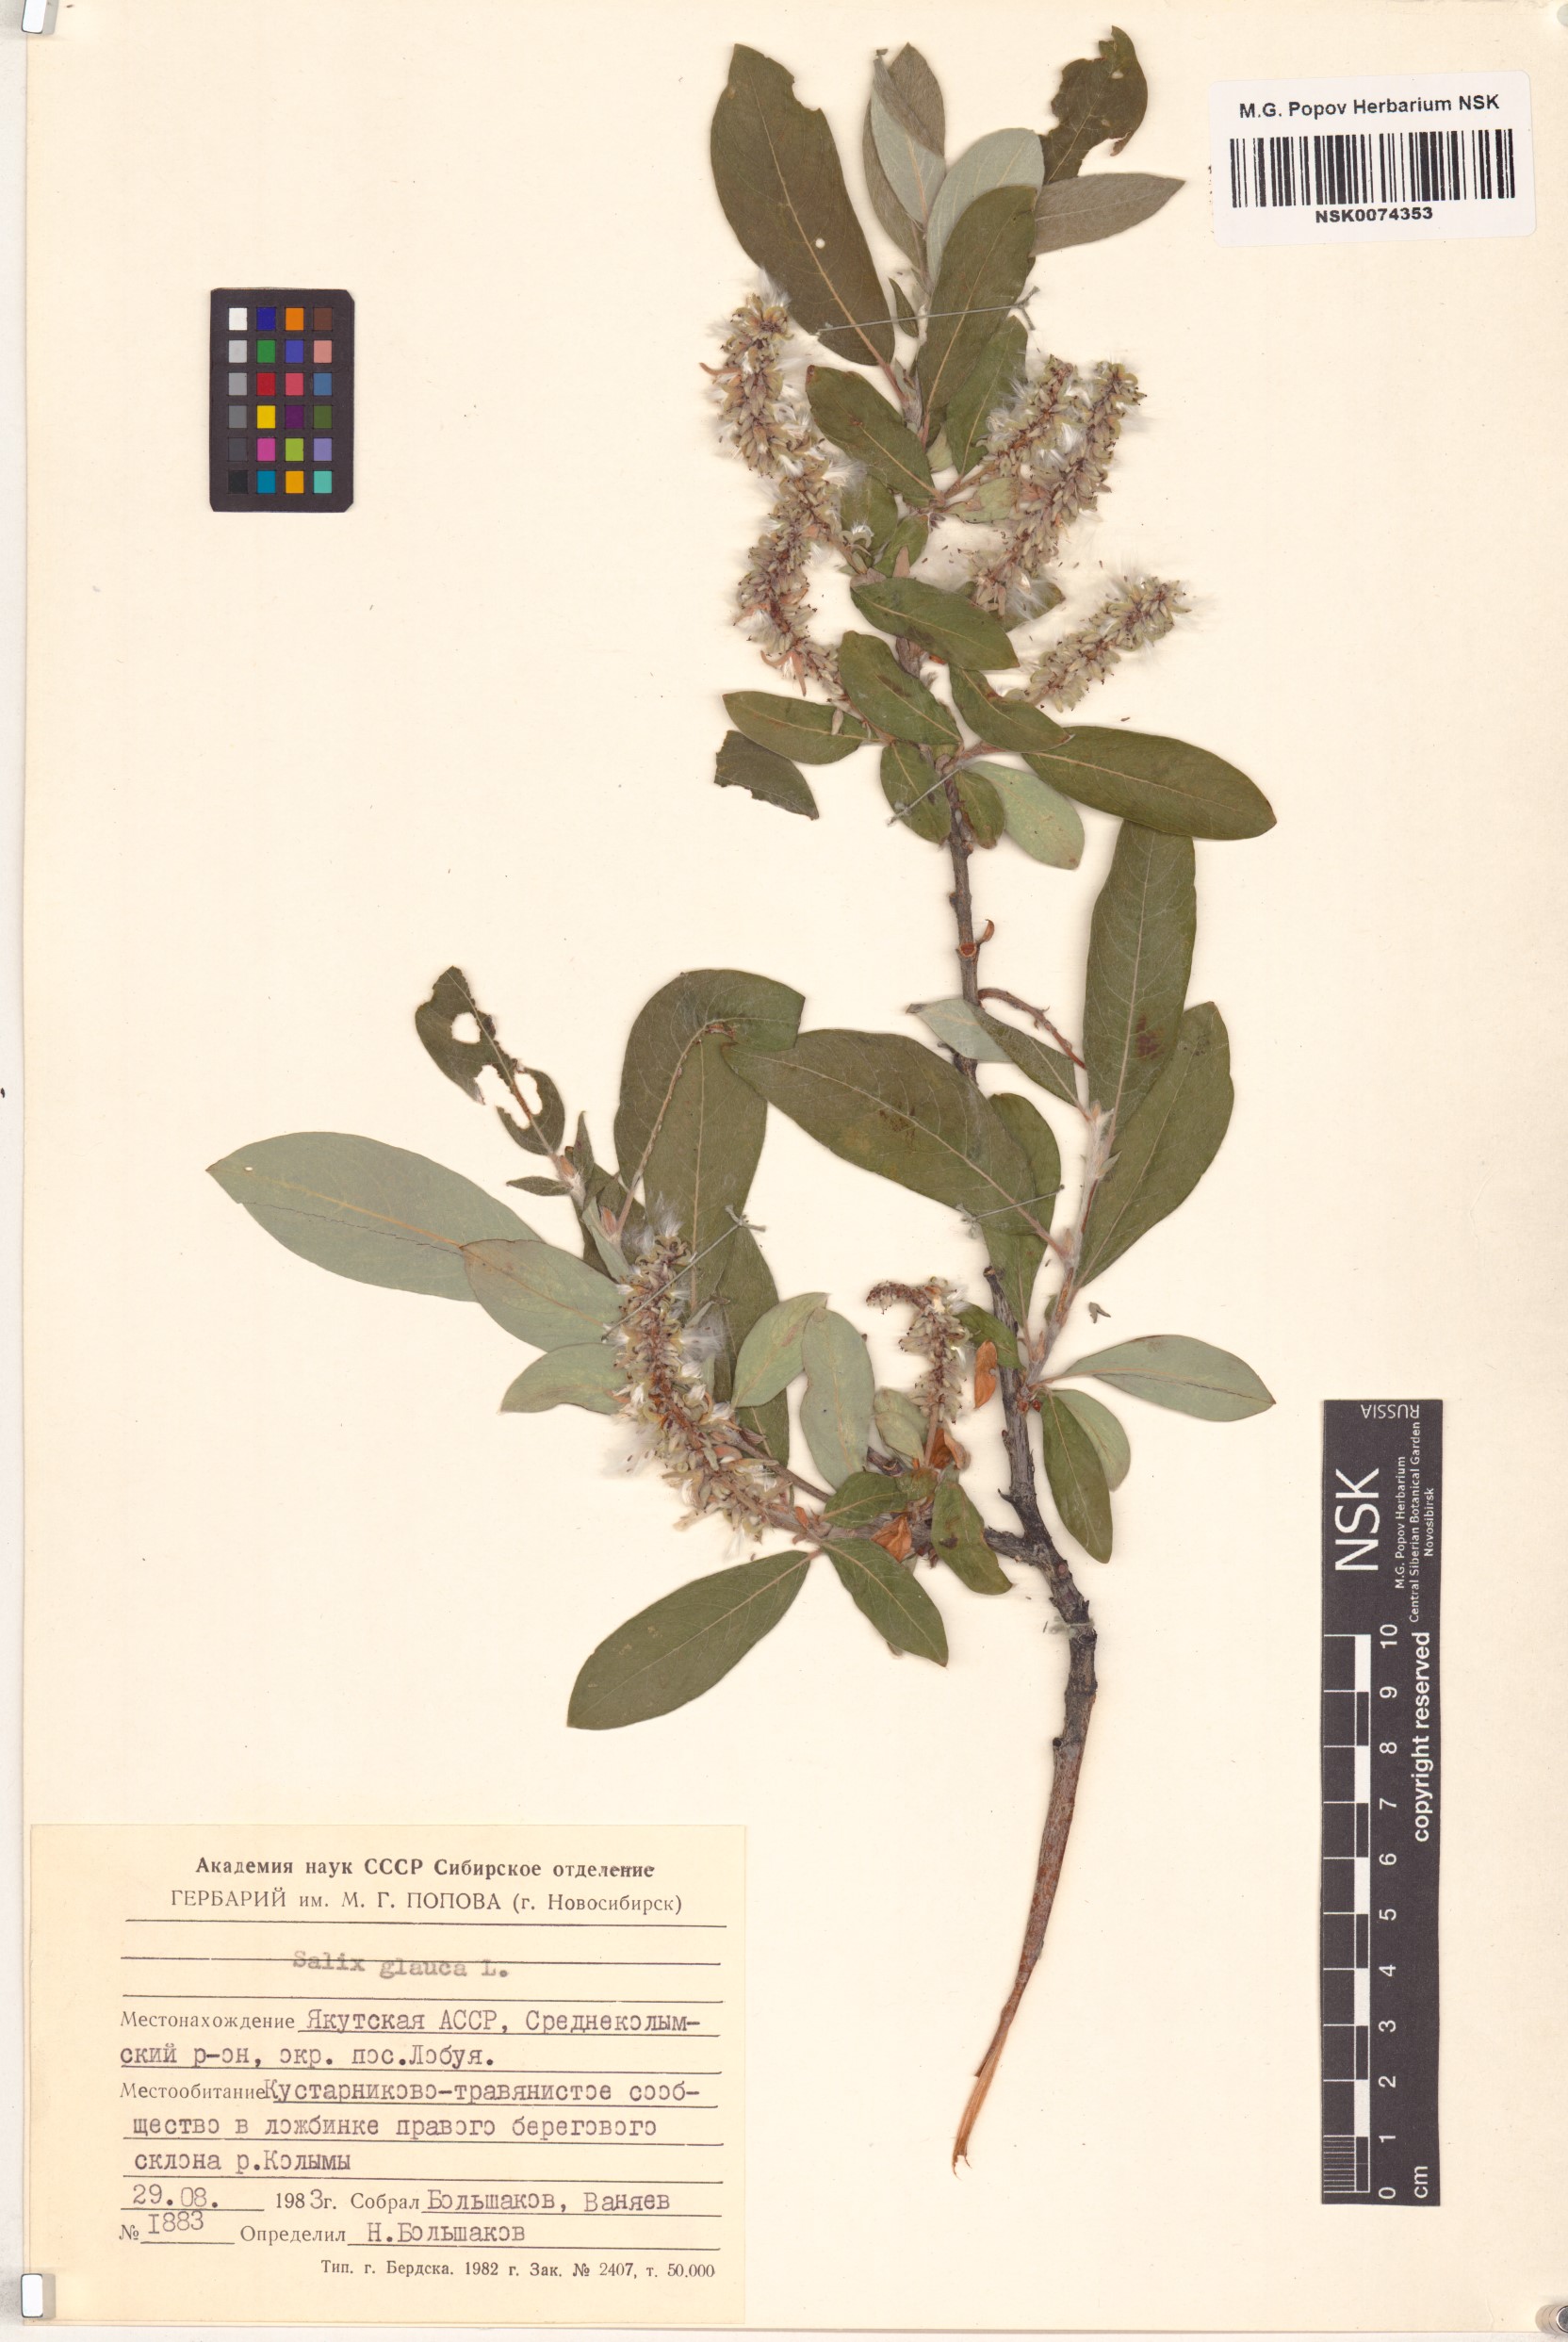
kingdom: Plantae
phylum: Tracheophyta
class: Magnoliopsida
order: Malpighiales
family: Salicaceae
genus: Salix
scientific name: Salix glauca
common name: Glaucous willow
